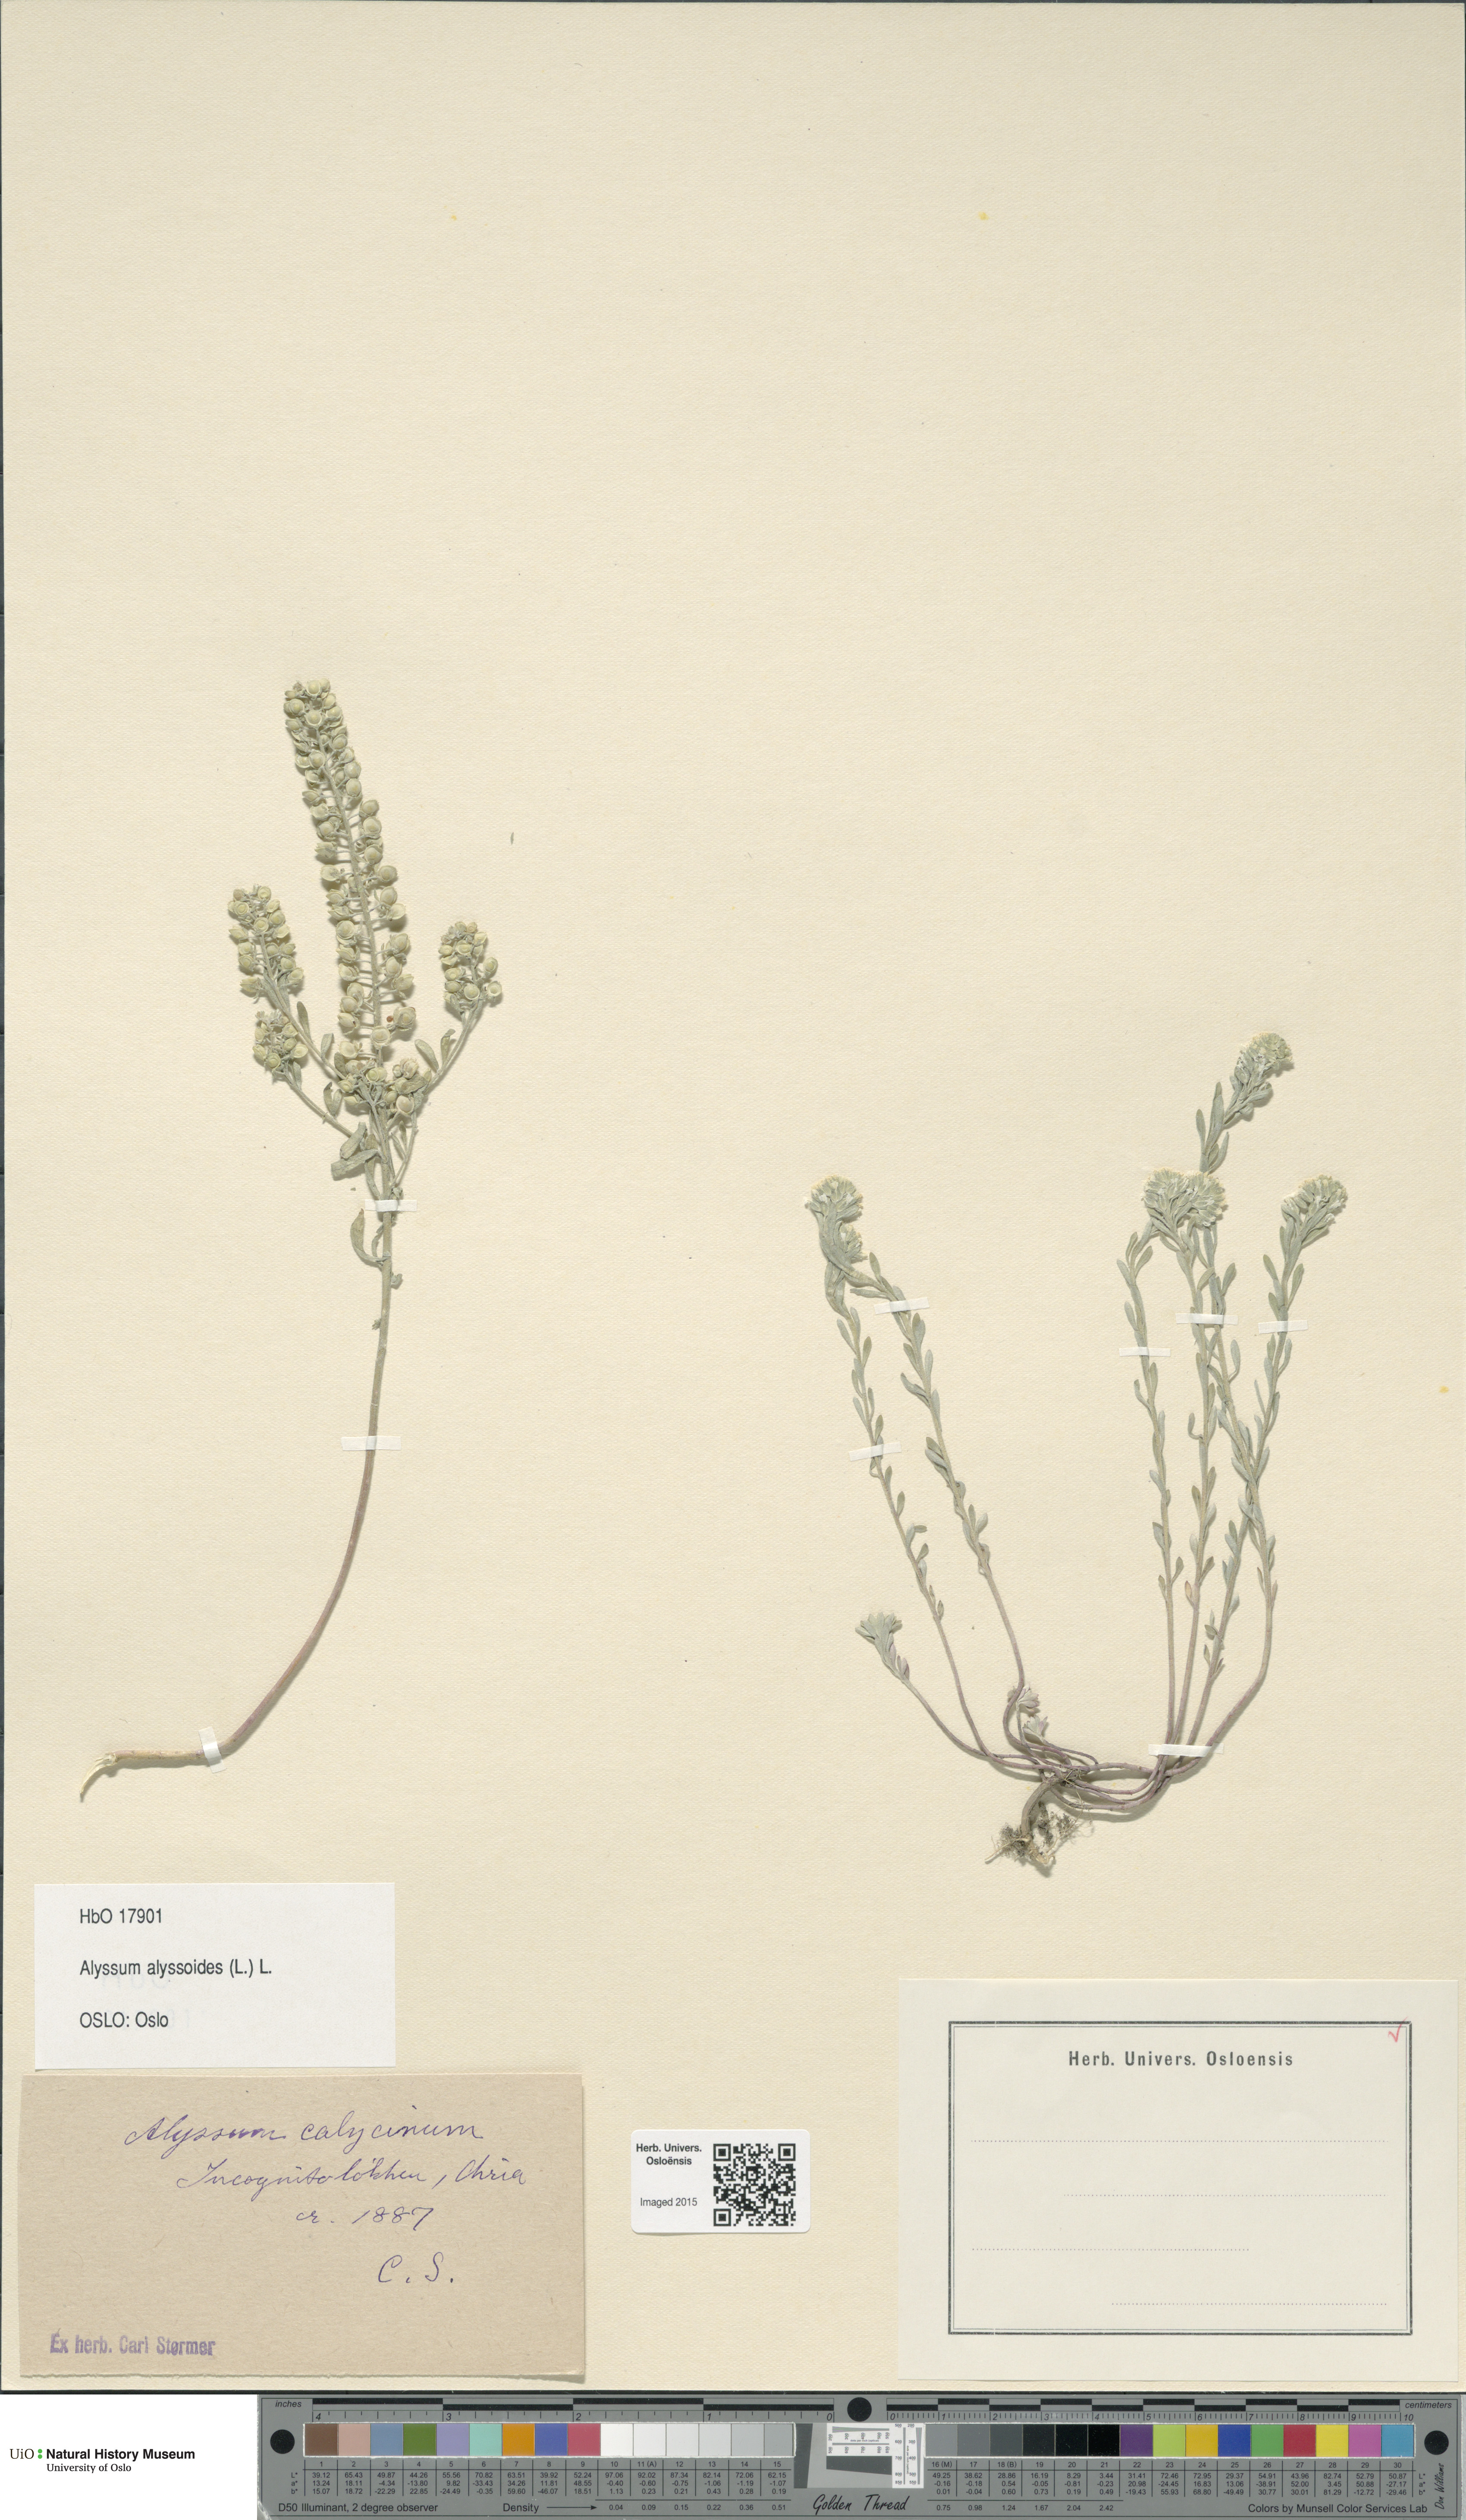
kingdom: Plantae
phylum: Tracheophyta
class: Magnoliopsida
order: Brassicales
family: Brassicaceae
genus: Alyssum
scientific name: Alyssum alyssoides
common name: Small alison
